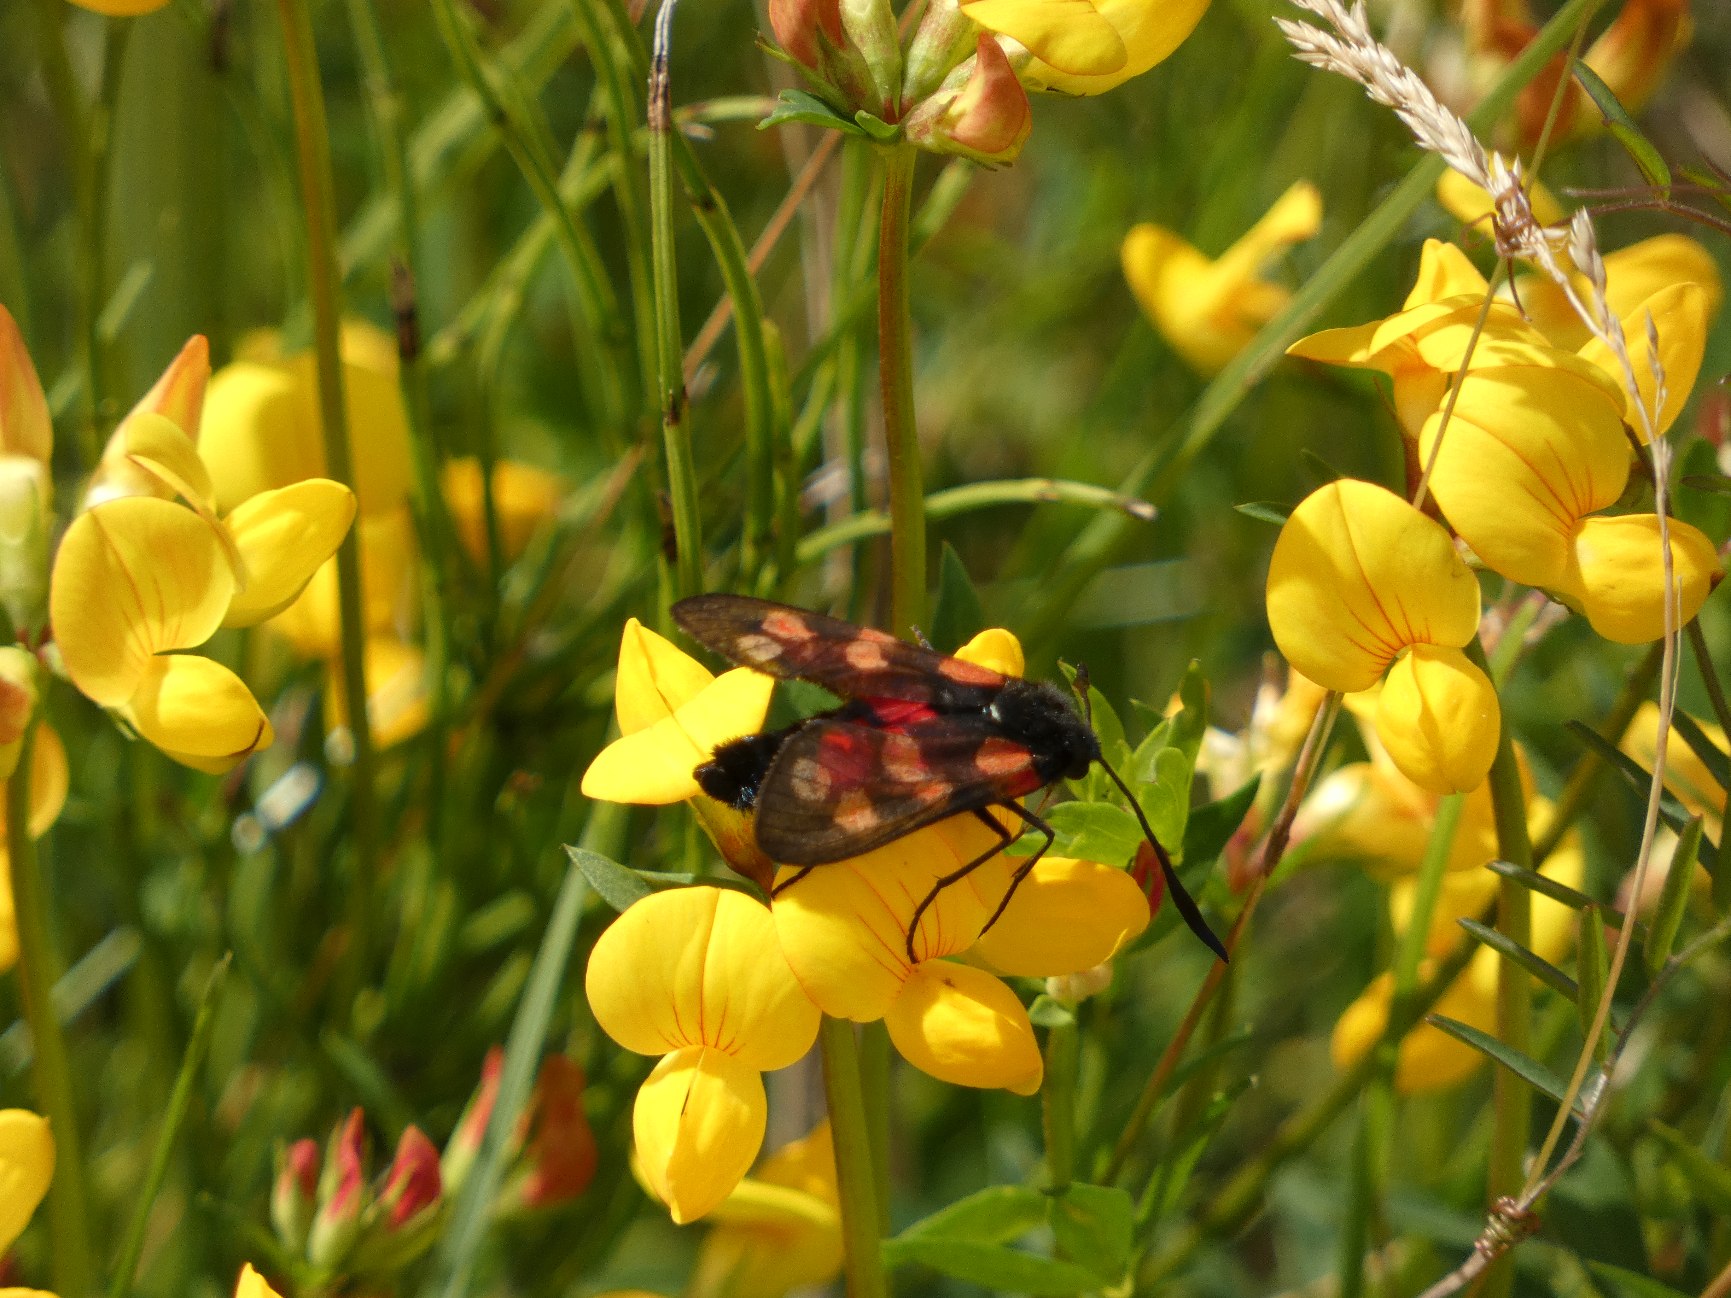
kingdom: Animalia
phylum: Arthropoda
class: Insecta
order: Lepidoptera
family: Zygaenidae
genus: Zygaena
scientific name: Zygaena filipendulae
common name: Seksplettet køllesværmer
